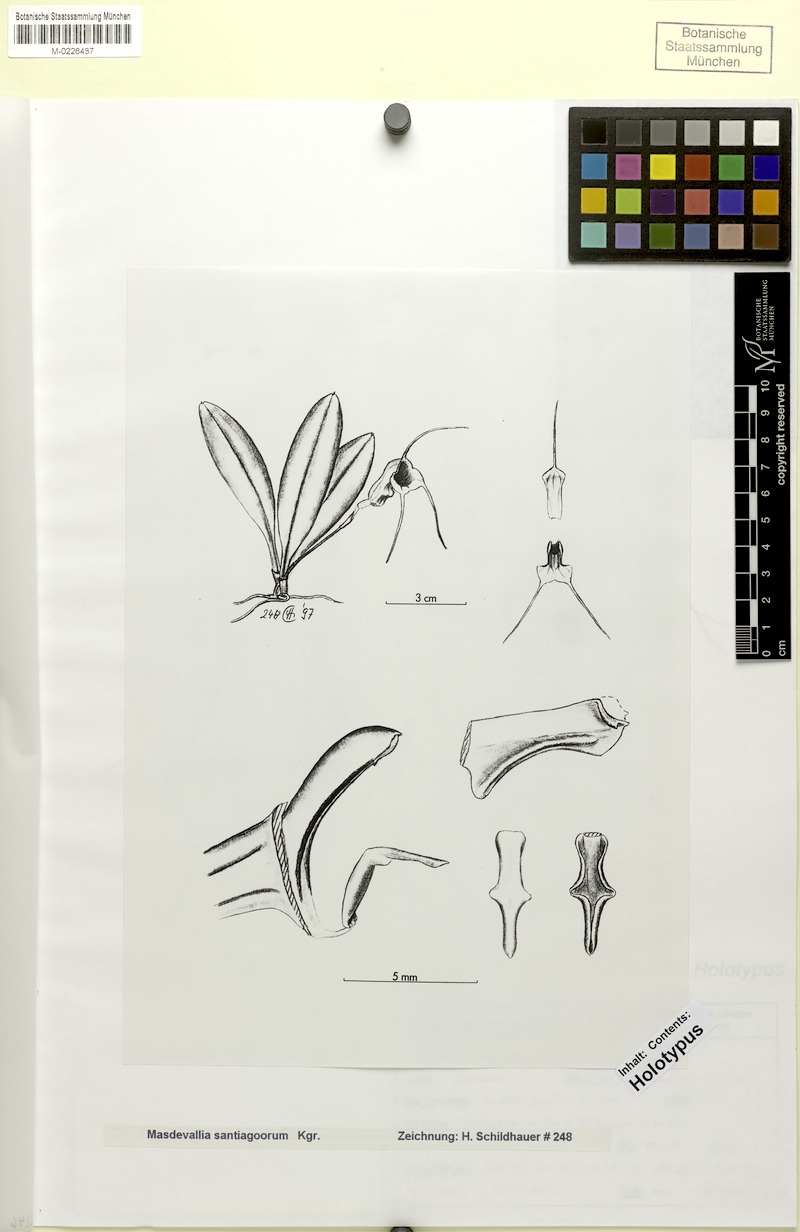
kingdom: Plantae
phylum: Tracheophyta
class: Liliopsida
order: Asparagales
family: Orchidaceae
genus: Masdevallia
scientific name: Masdevallia aurea
